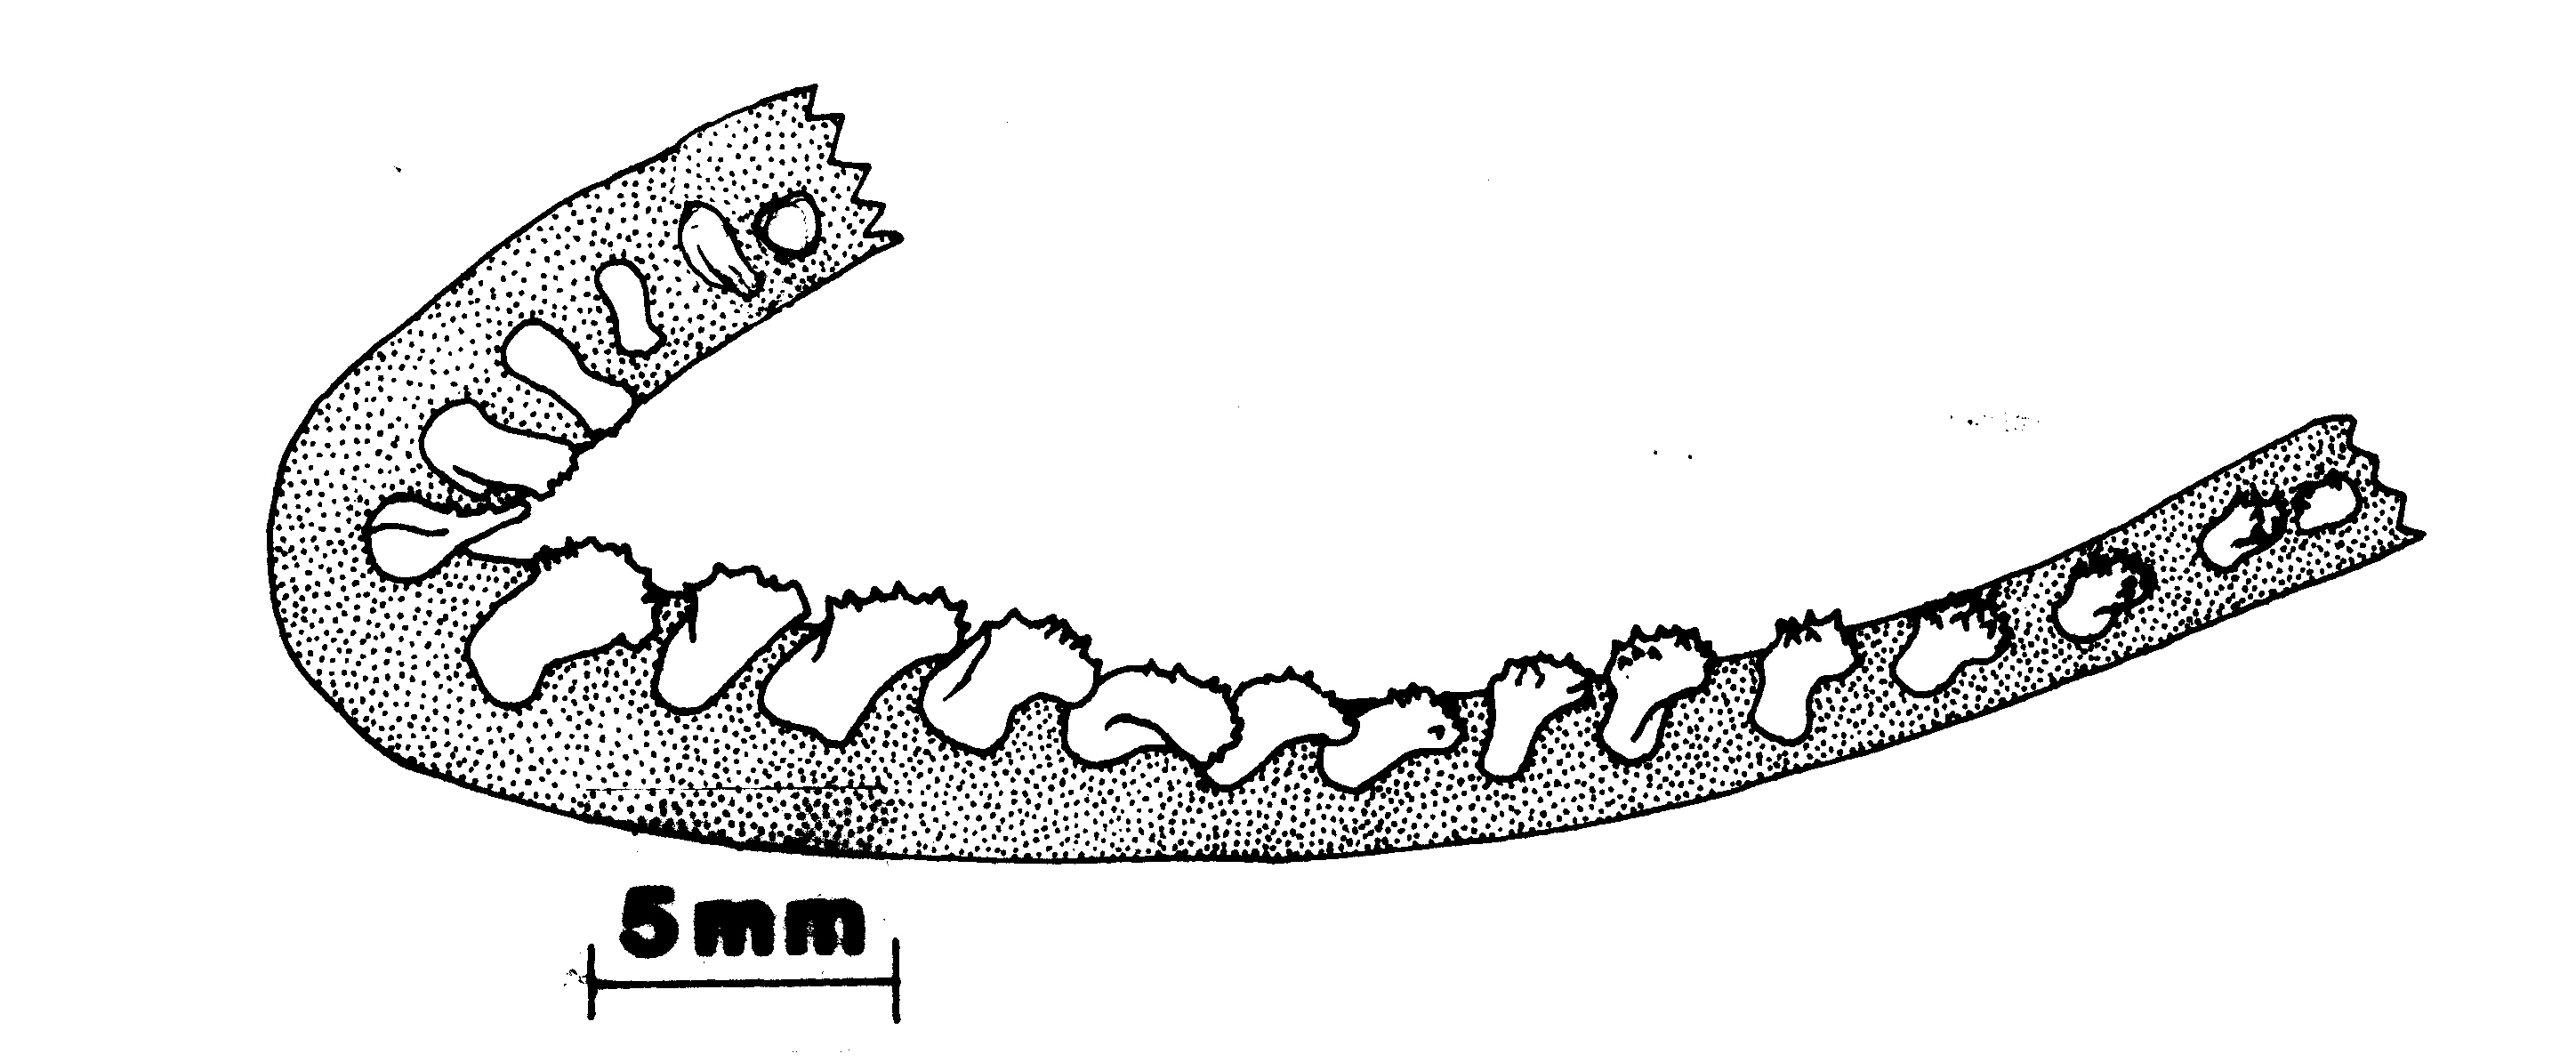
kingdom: Animalia
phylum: Chordata
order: Perciformes
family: Zoarcidae
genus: Bothrocara
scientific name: Bothrocara zestum
